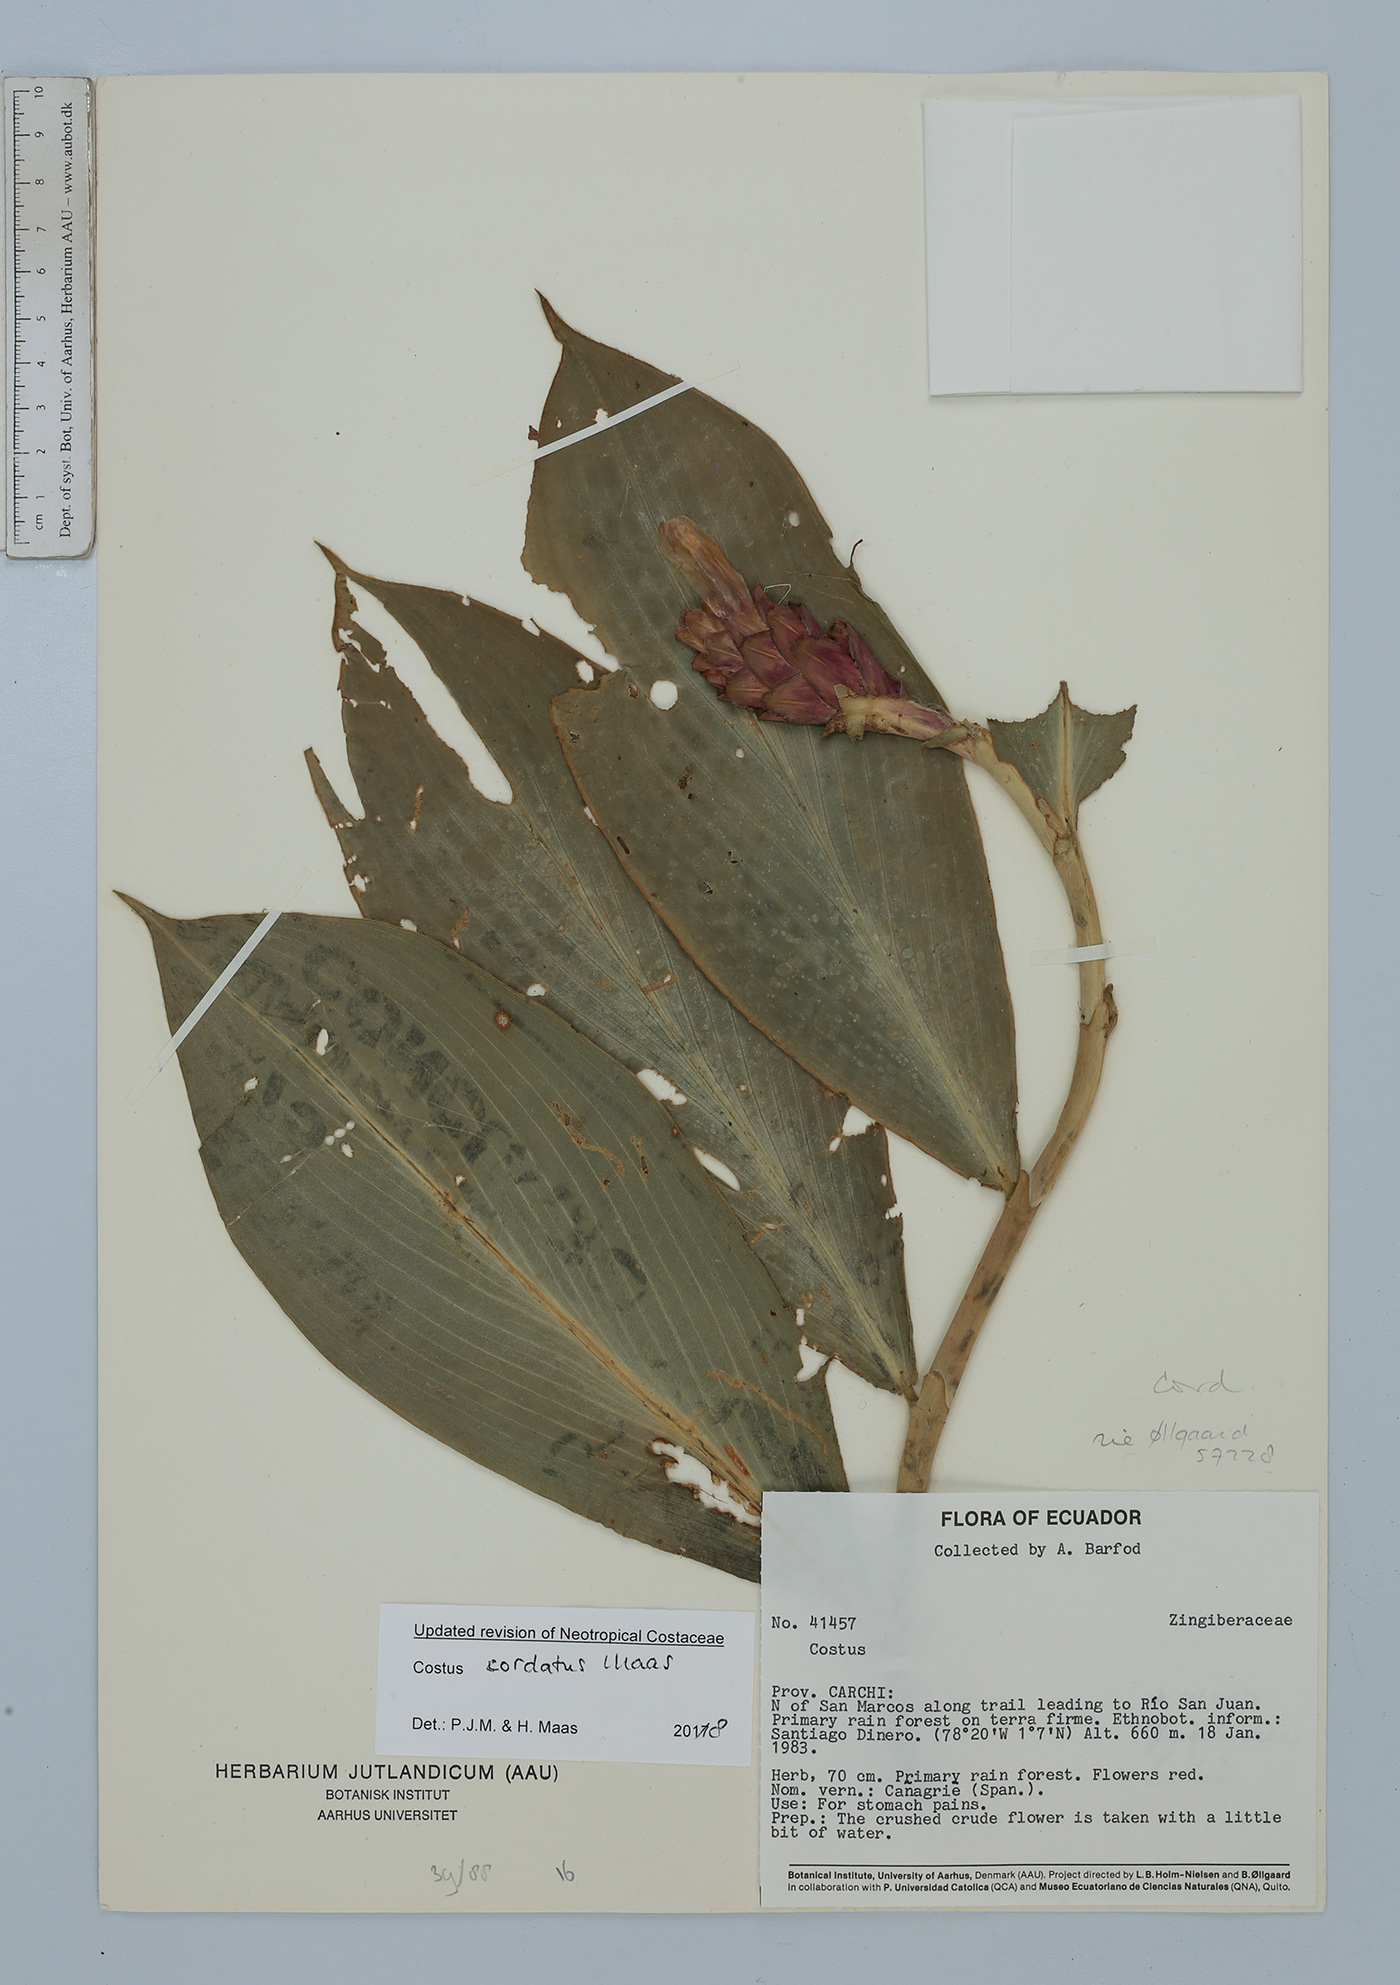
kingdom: Plantae
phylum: Tracheophyta
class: Liliopsida
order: Zingiberales
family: Costaceae
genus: Costus
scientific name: Costus cordatus
